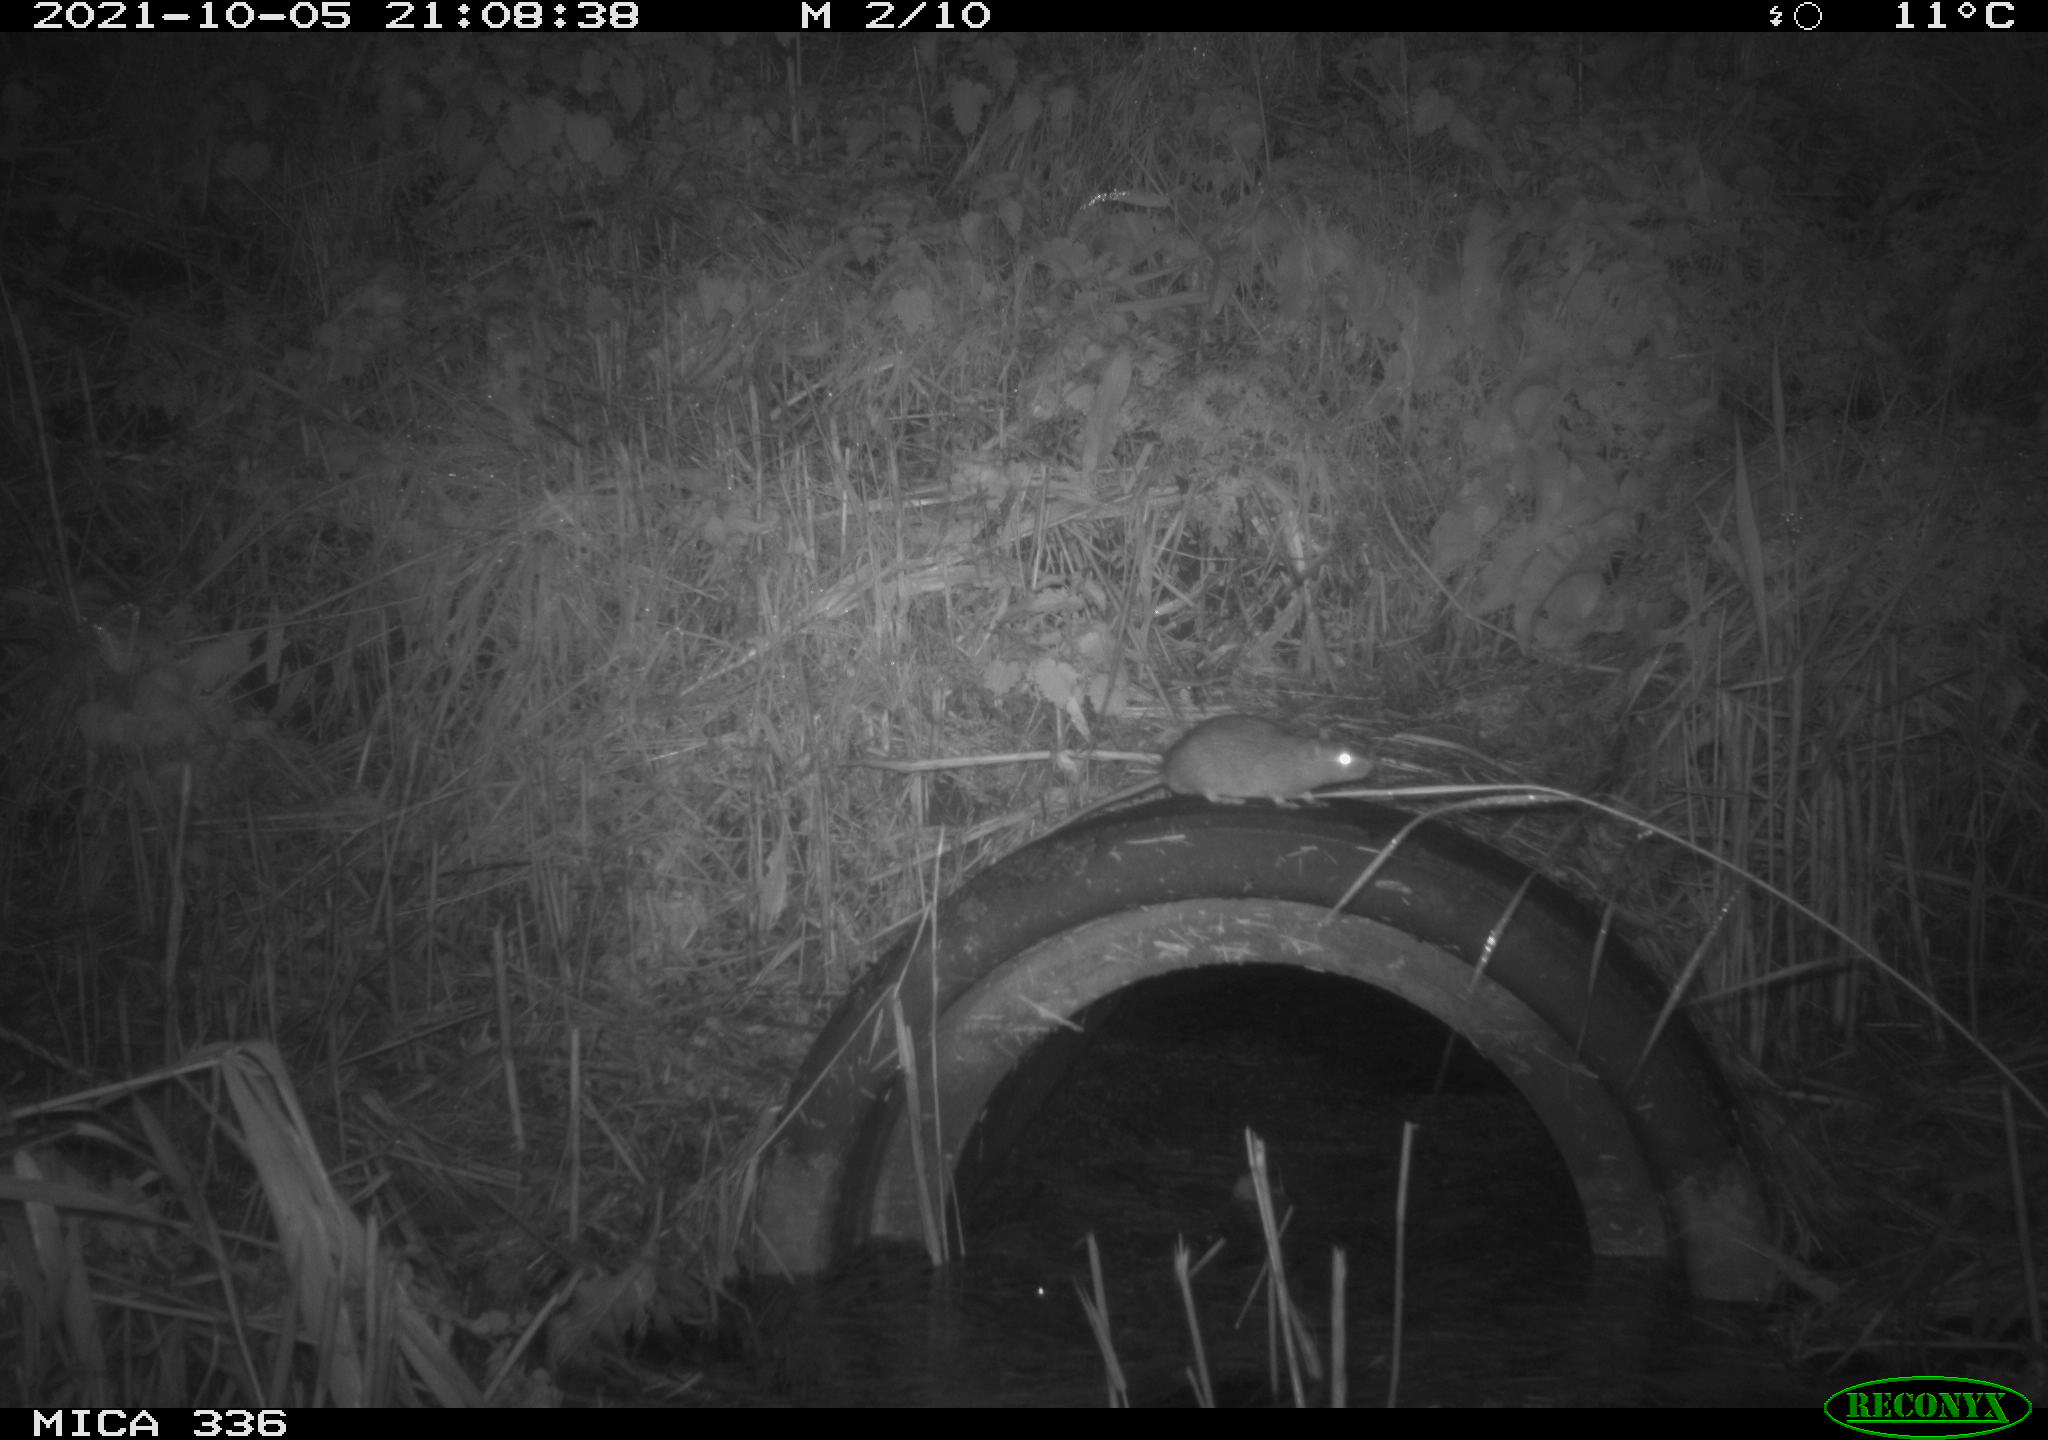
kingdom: Animalia
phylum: Chordata
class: Mammalia
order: Rodentia
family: Muridae
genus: Rattus
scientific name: Rattus norvegicus
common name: Brown rat
